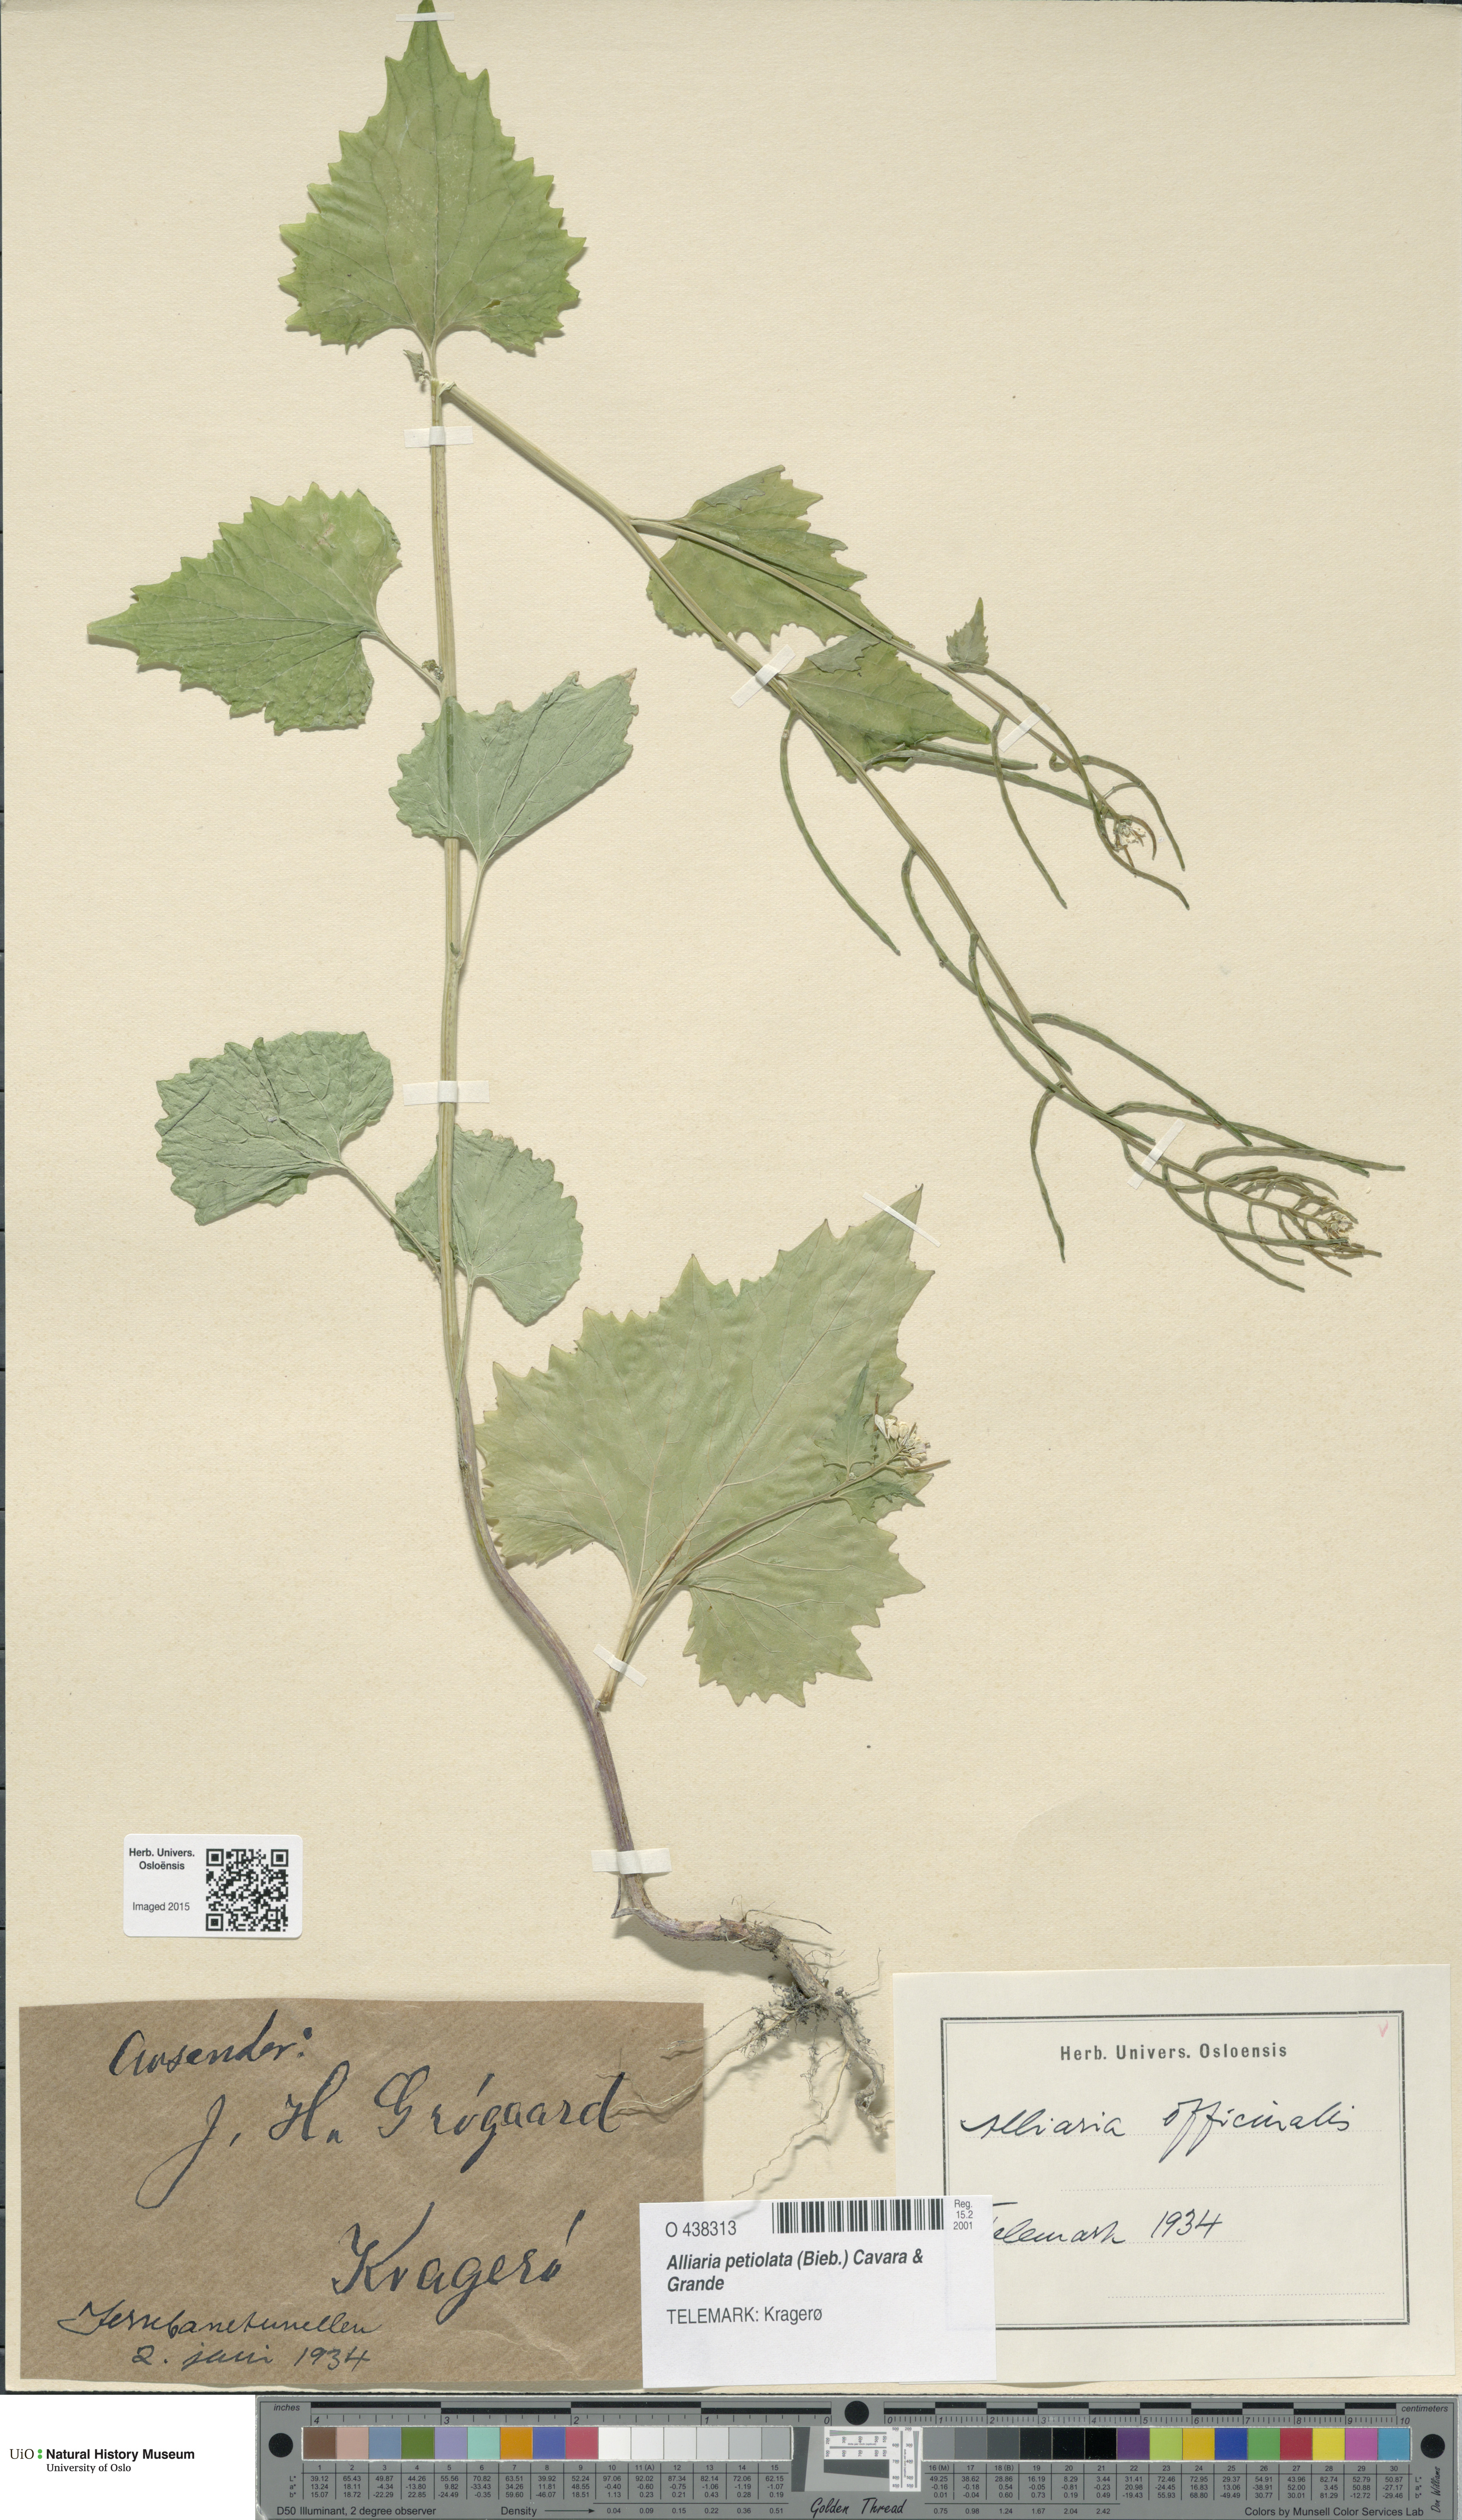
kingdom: Plantae
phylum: Tracheophyta
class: Magnoliopsida
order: Brassicales
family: Brassicaceae
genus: Alliaria
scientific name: Alliaria petiolata
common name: Garlic mustard
